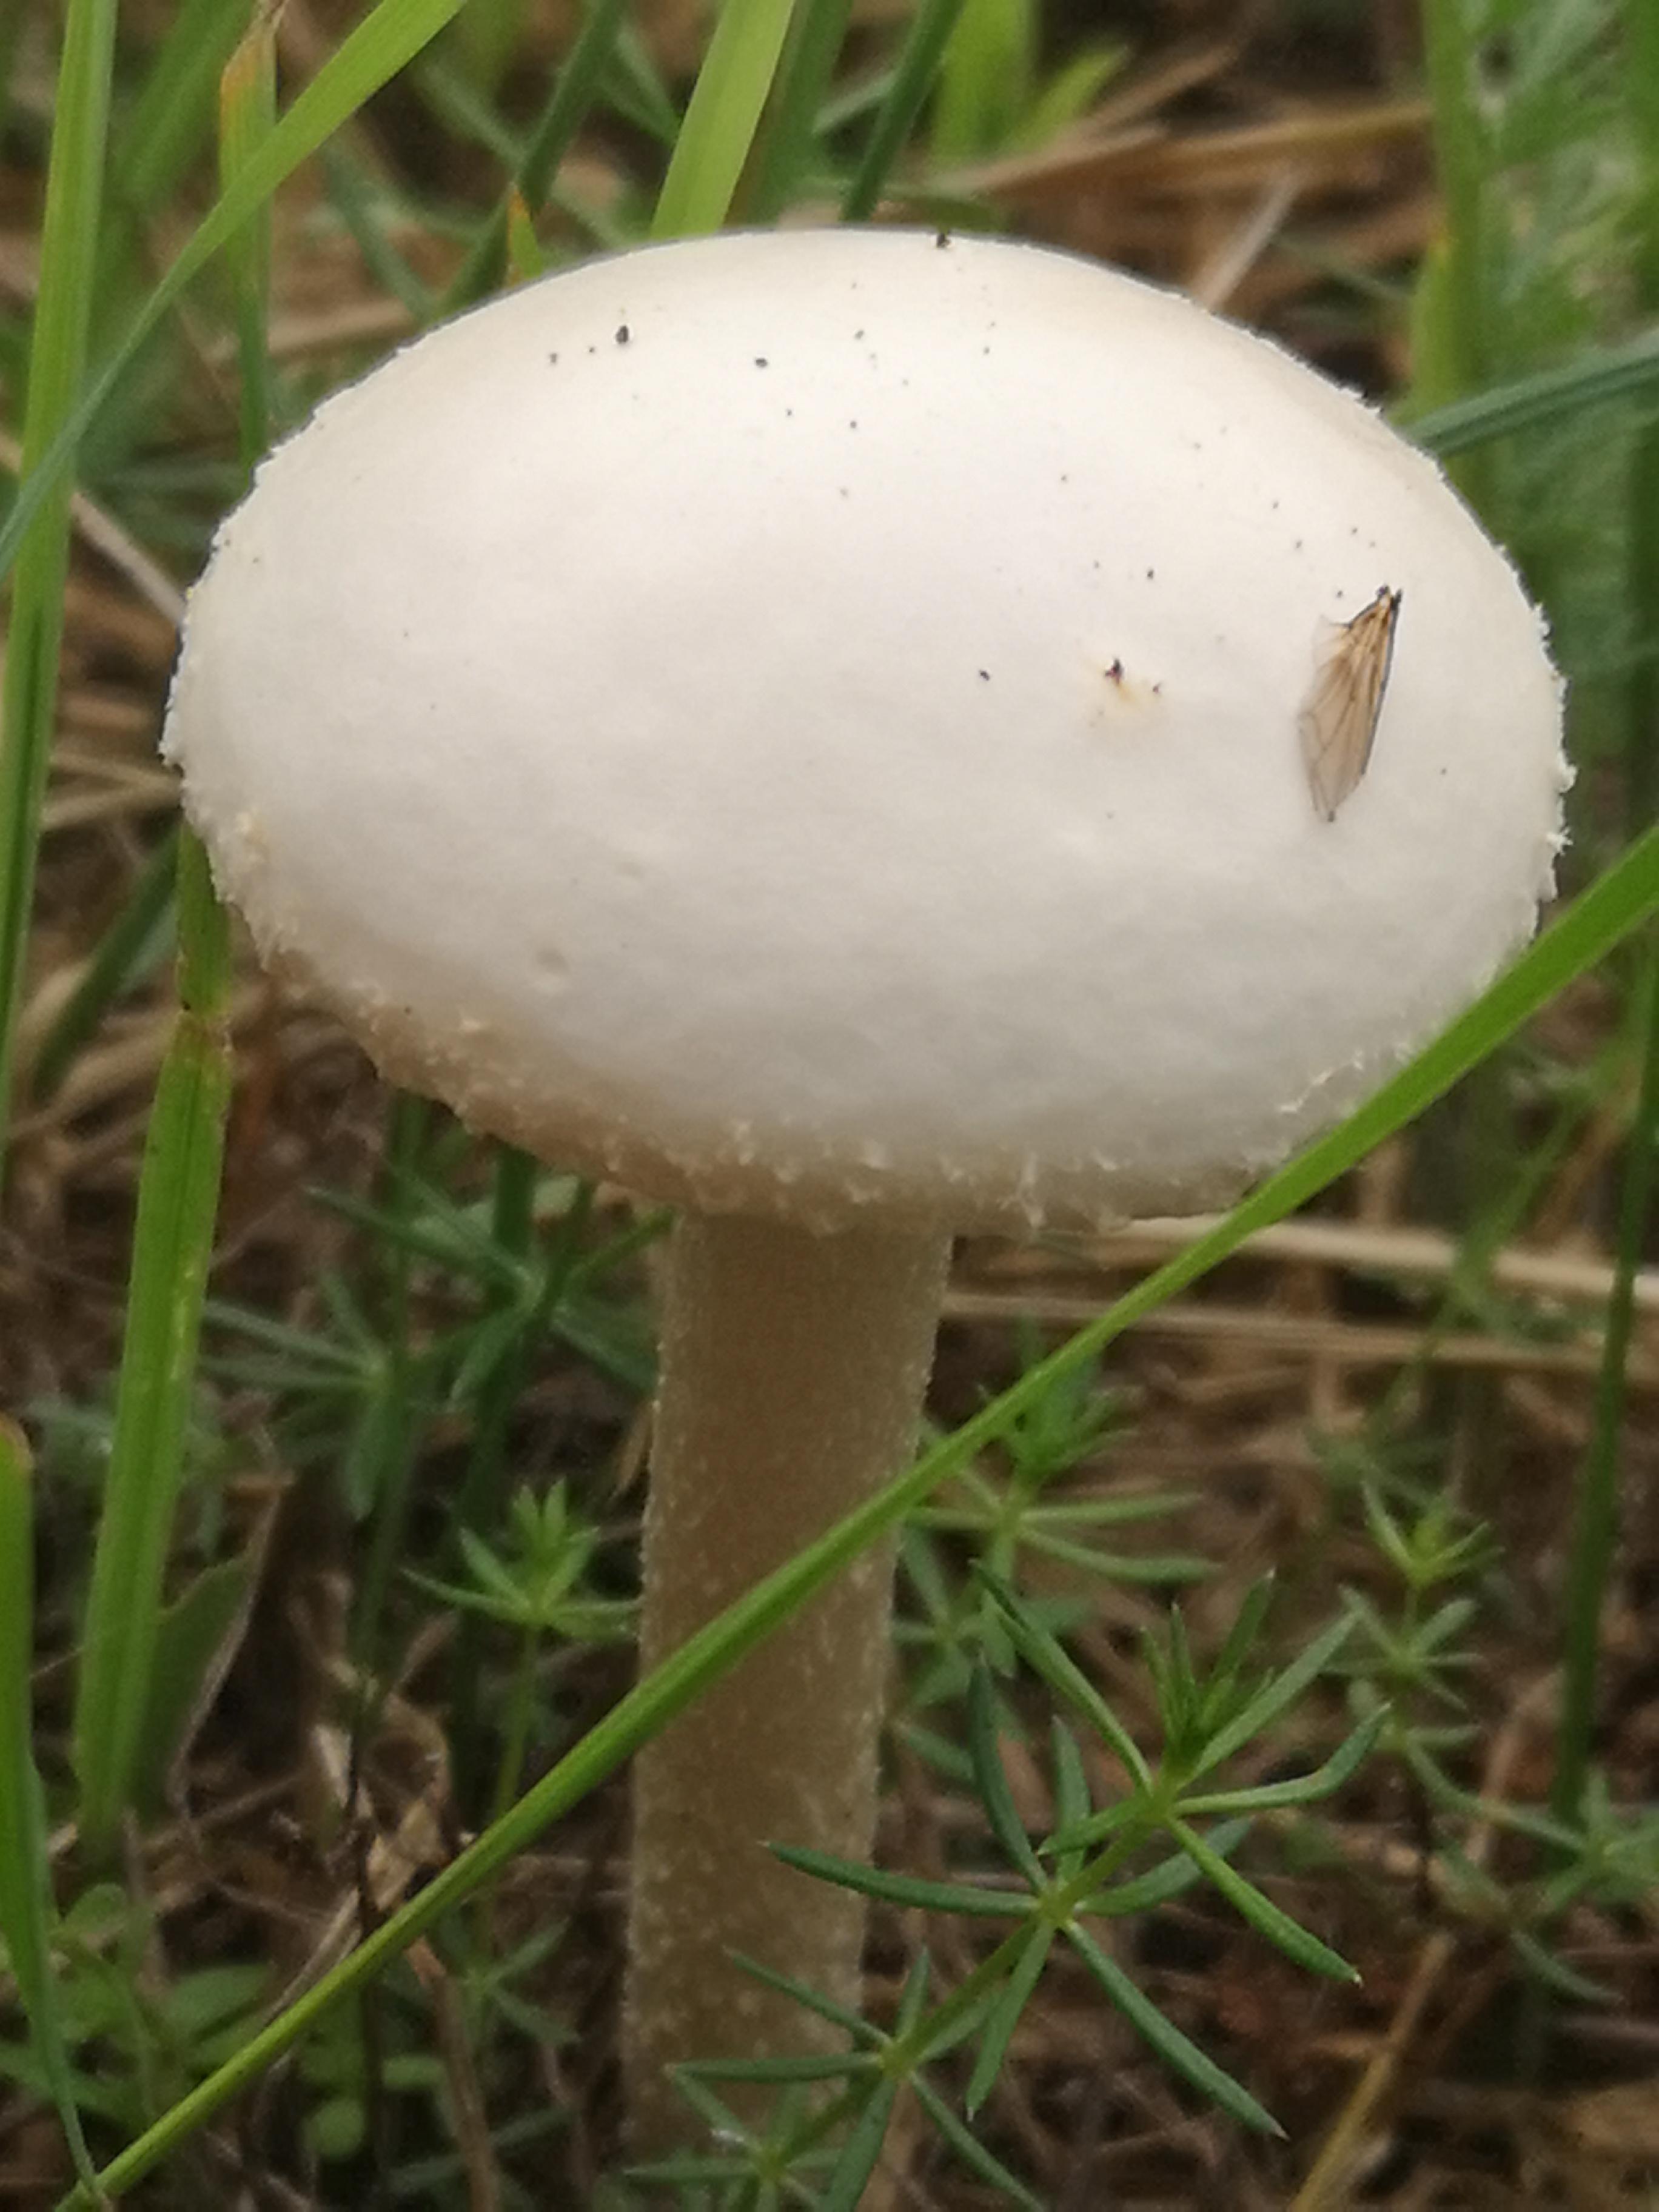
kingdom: Fungi
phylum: Basidiomycota
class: Agaricomycetes
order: Agaricales
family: Strophariaceae
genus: Agrocybe
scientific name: Agrocybe dura
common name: fastkødet agerhat
